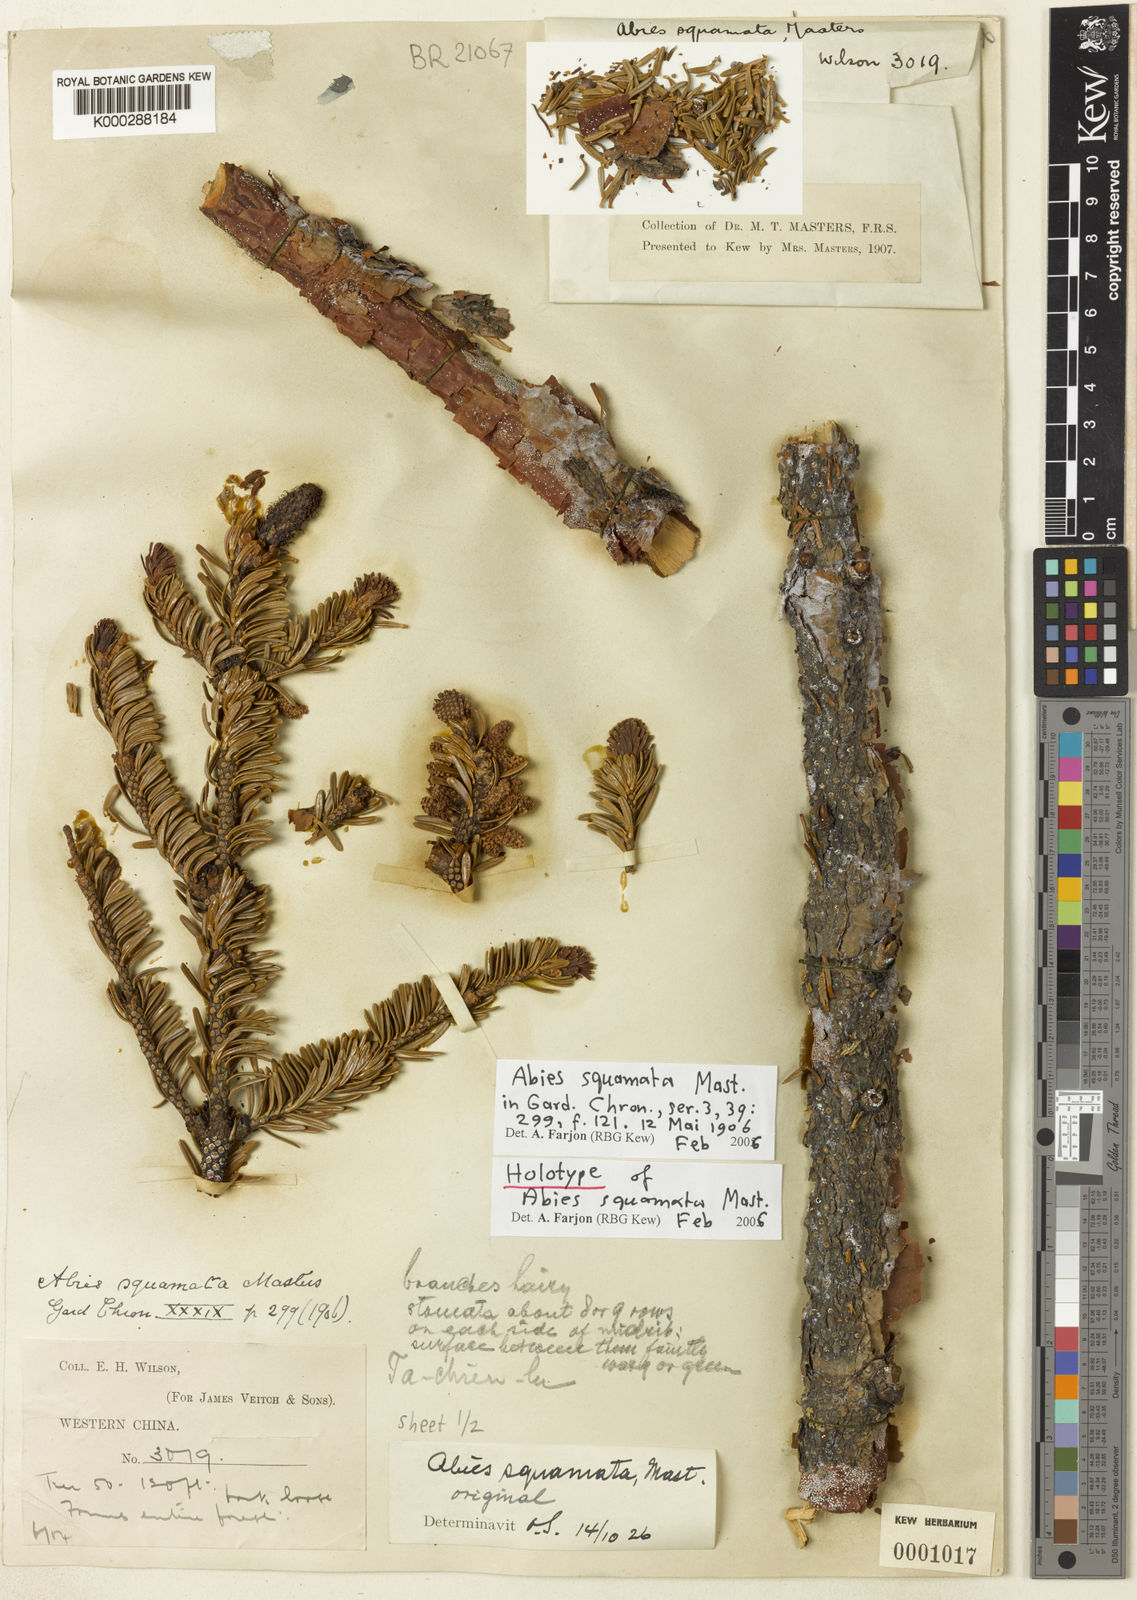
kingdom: Plantae
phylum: Tracheophyta
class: Pinopsida
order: Pinales
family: Pinaceae
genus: Abies
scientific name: Abies squamata
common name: Flaky fir
